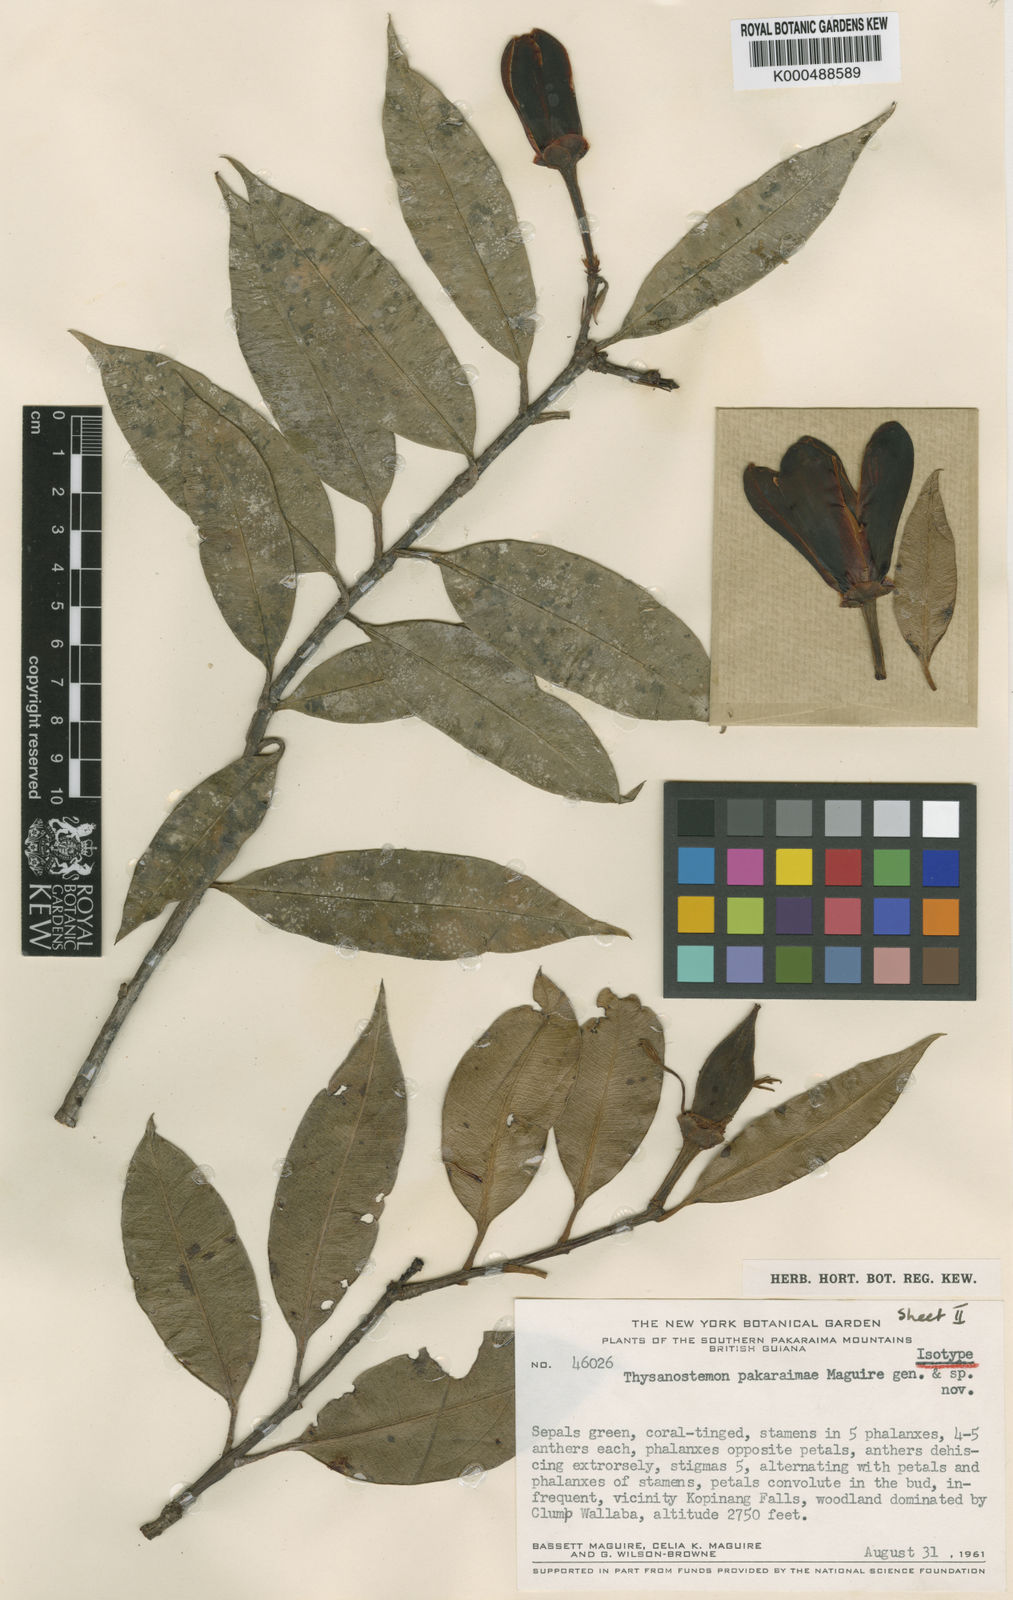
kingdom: Plantae
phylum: Tracheophyta
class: Magnoliopsida
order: Malpighiales
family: Clusiaceae
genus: Thysanostemon
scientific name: Thysanostemon pakaraimae
